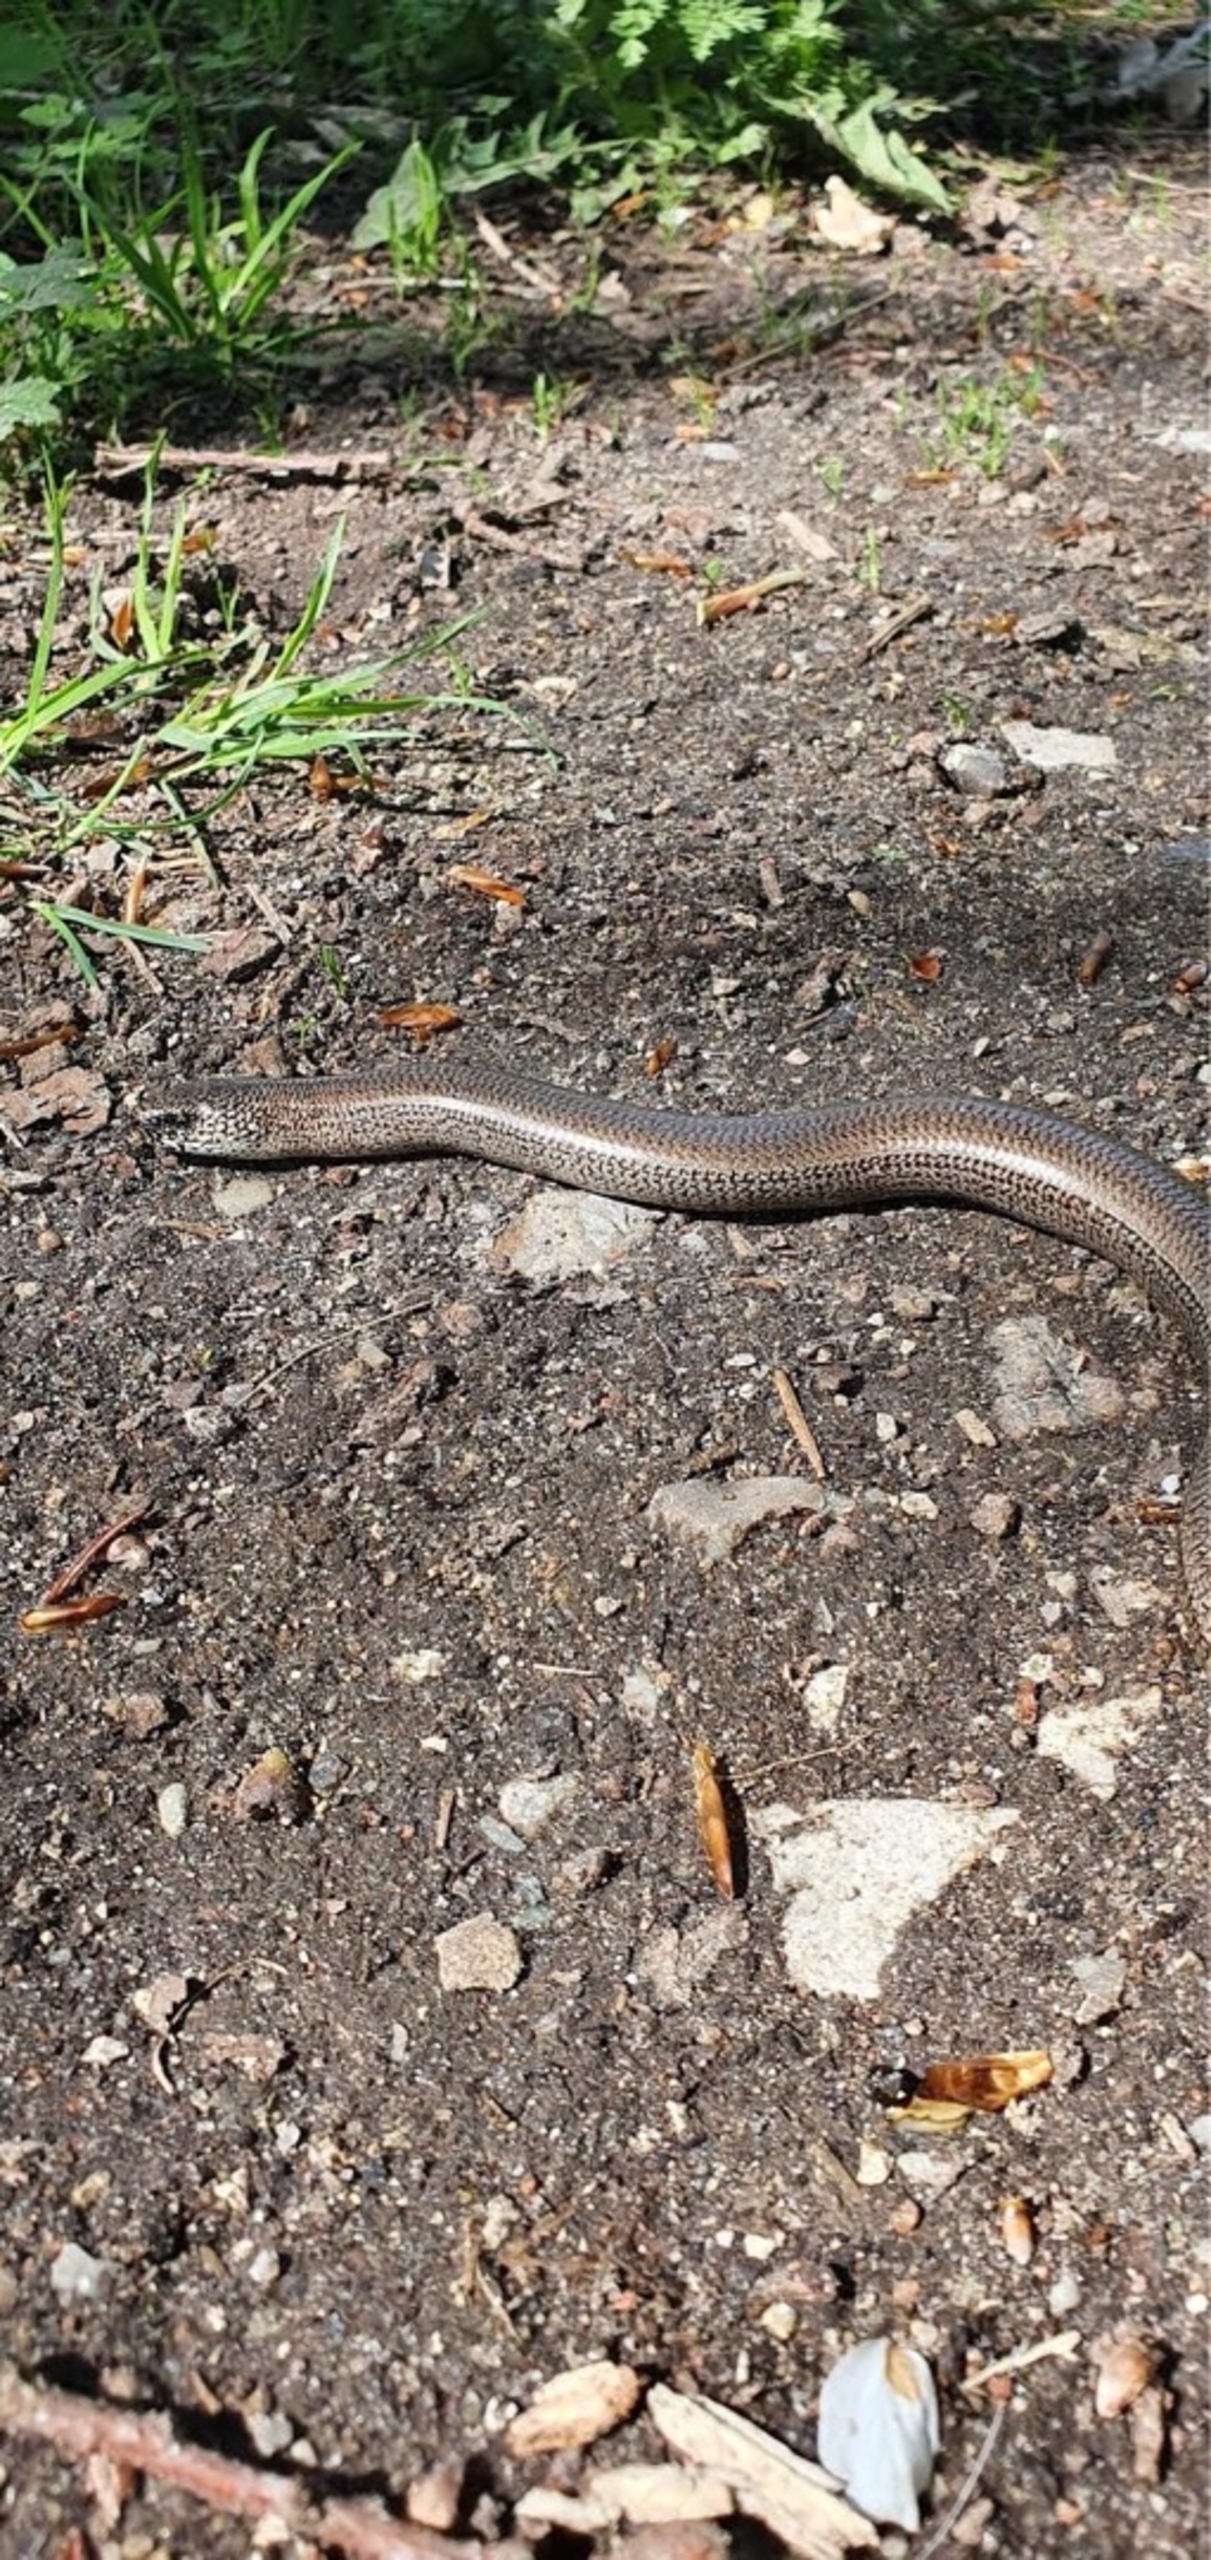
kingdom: Animalia
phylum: Chordata
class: Squamata
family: Anguidae
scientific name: Anguidae
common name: Stålorme
